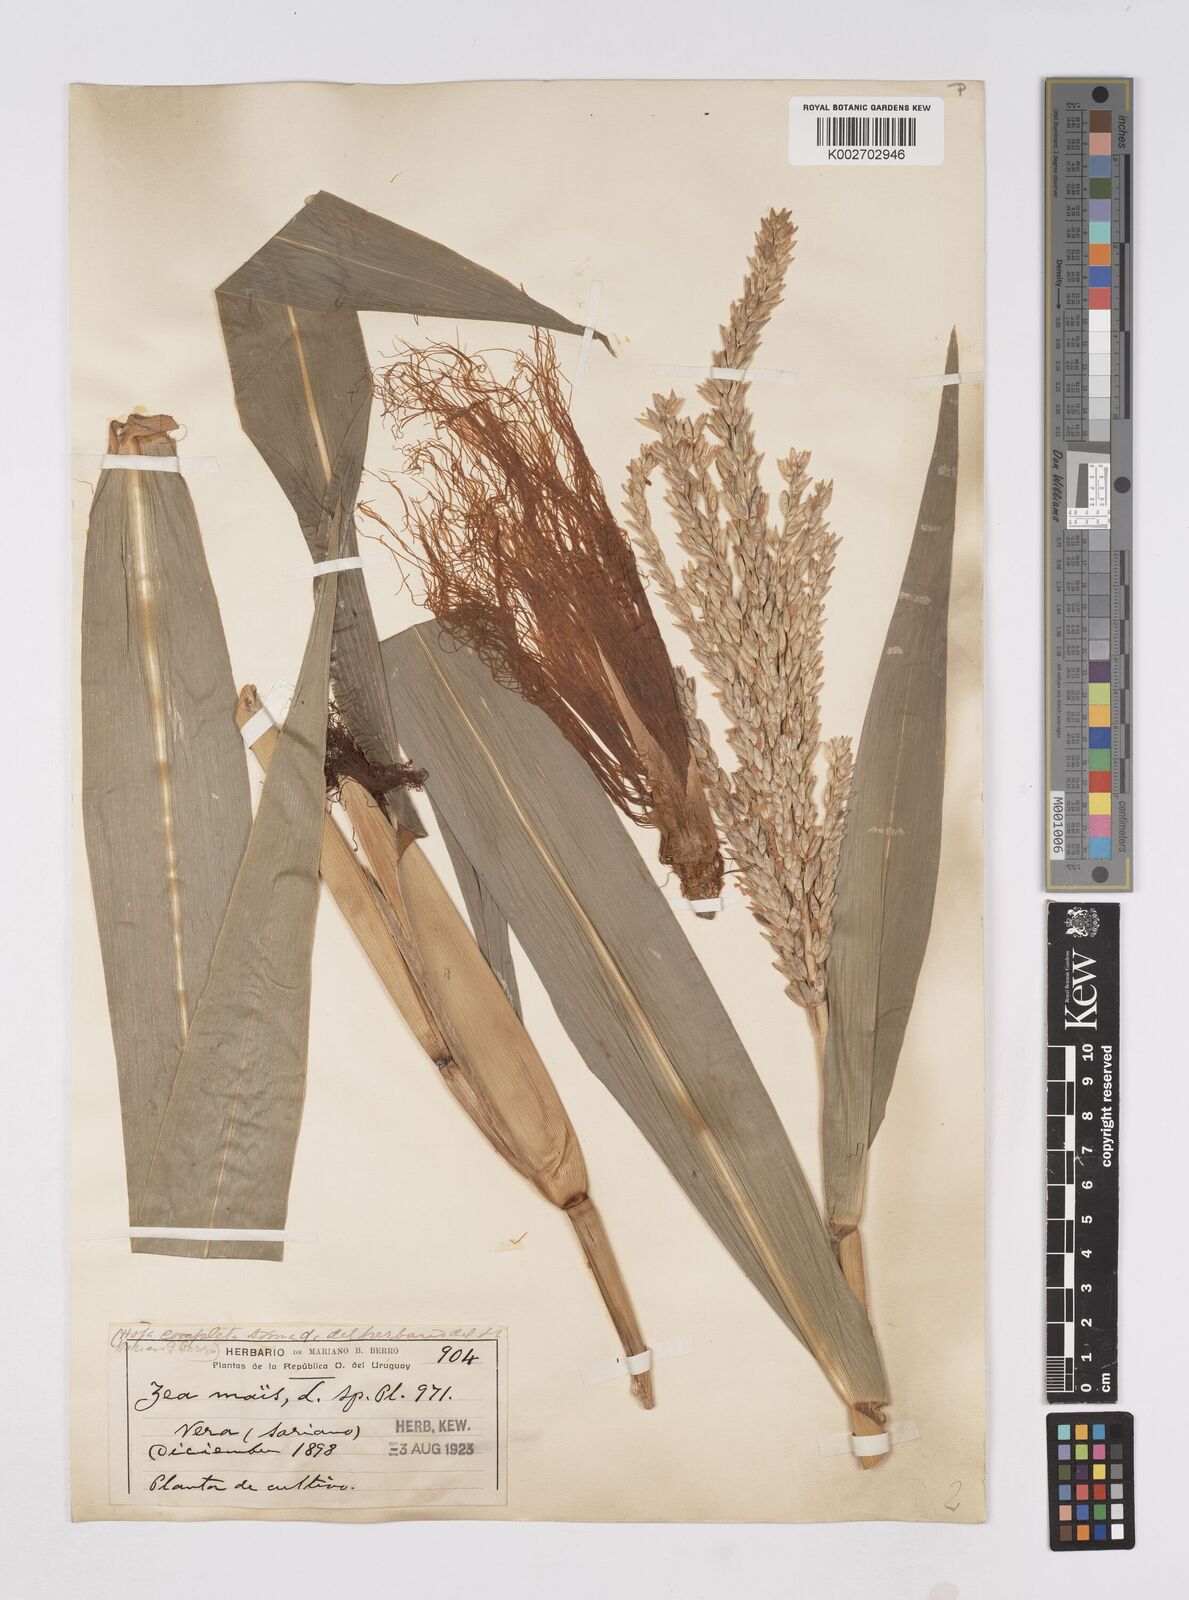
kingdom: Plantae
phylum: Tracheophyta
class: Liliopsida
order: Poales
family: Poaceae
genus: Zea
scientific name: Zea mays
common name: Maize
